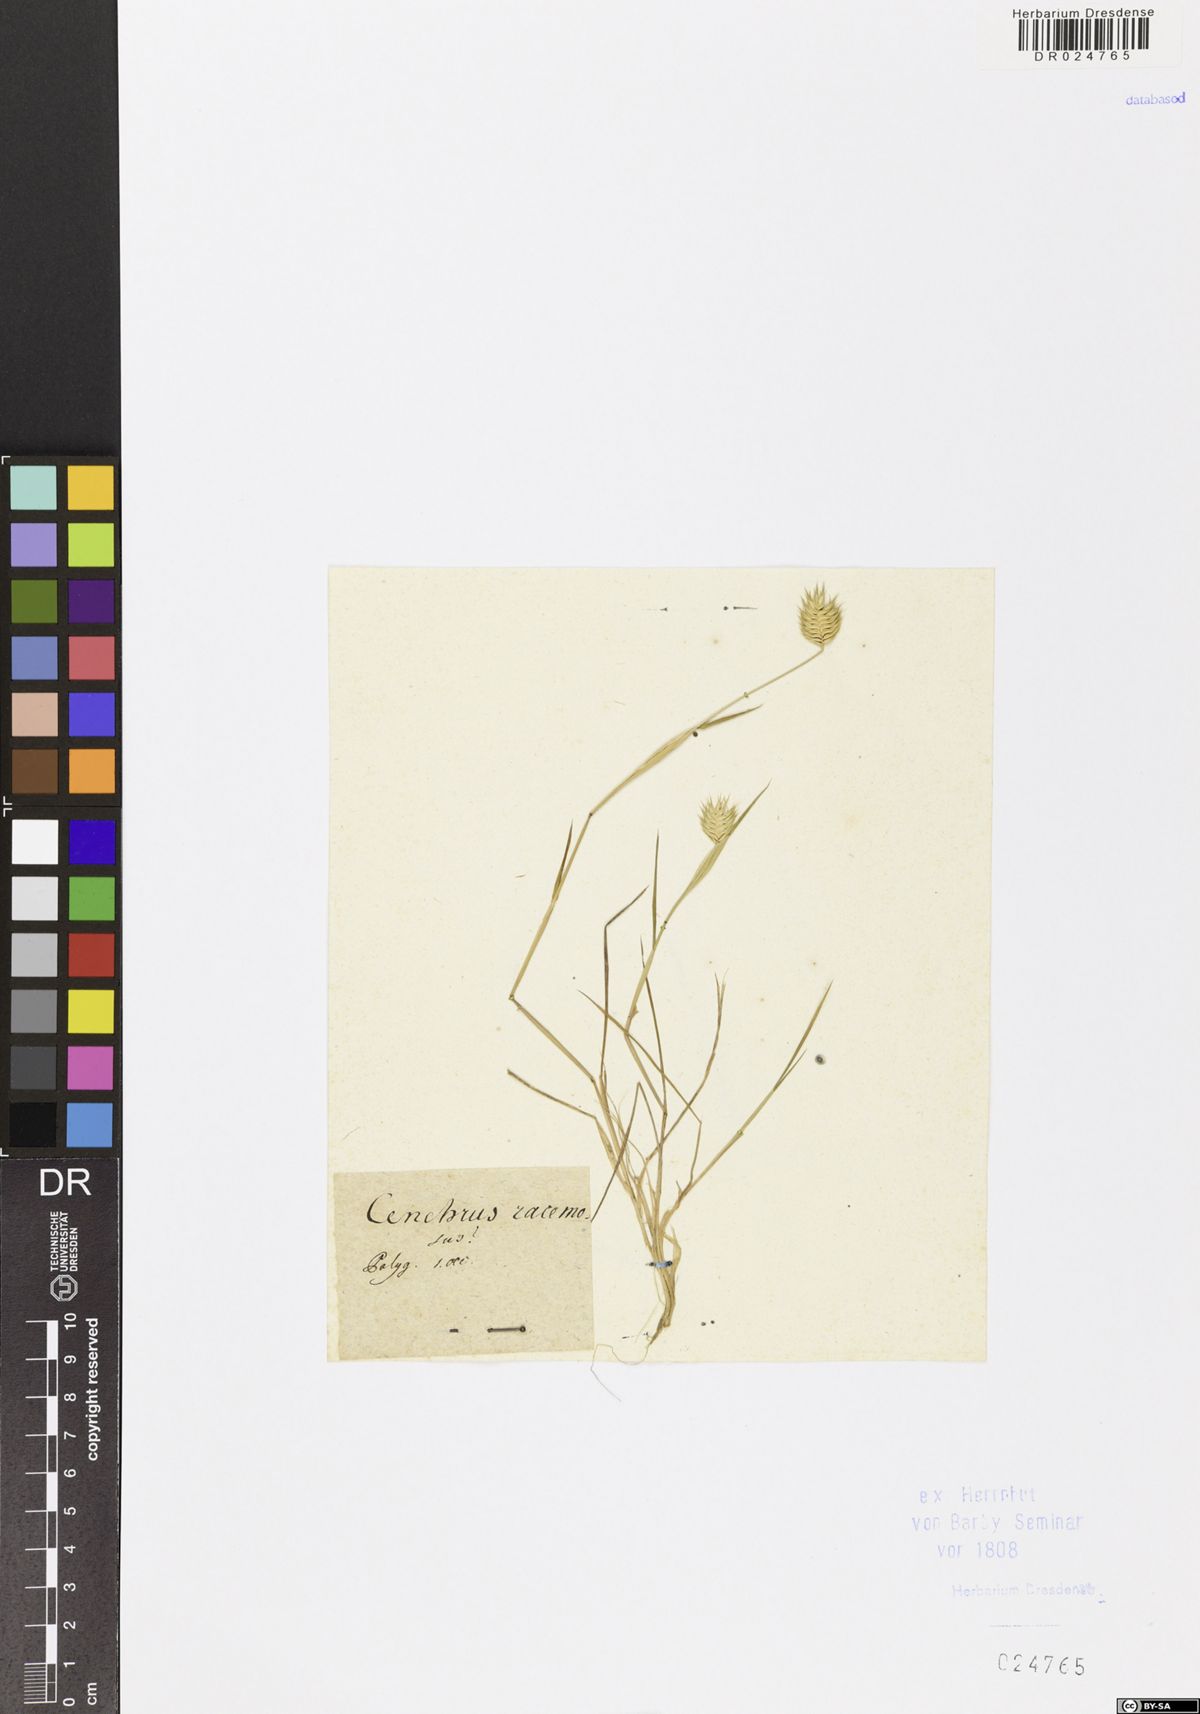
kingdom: Plantae
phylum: Tracheophyta
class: Liliopsida
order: Poales
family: Poaceae
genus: Tragus
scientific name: Tragus racemosus
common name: European bur-grass
